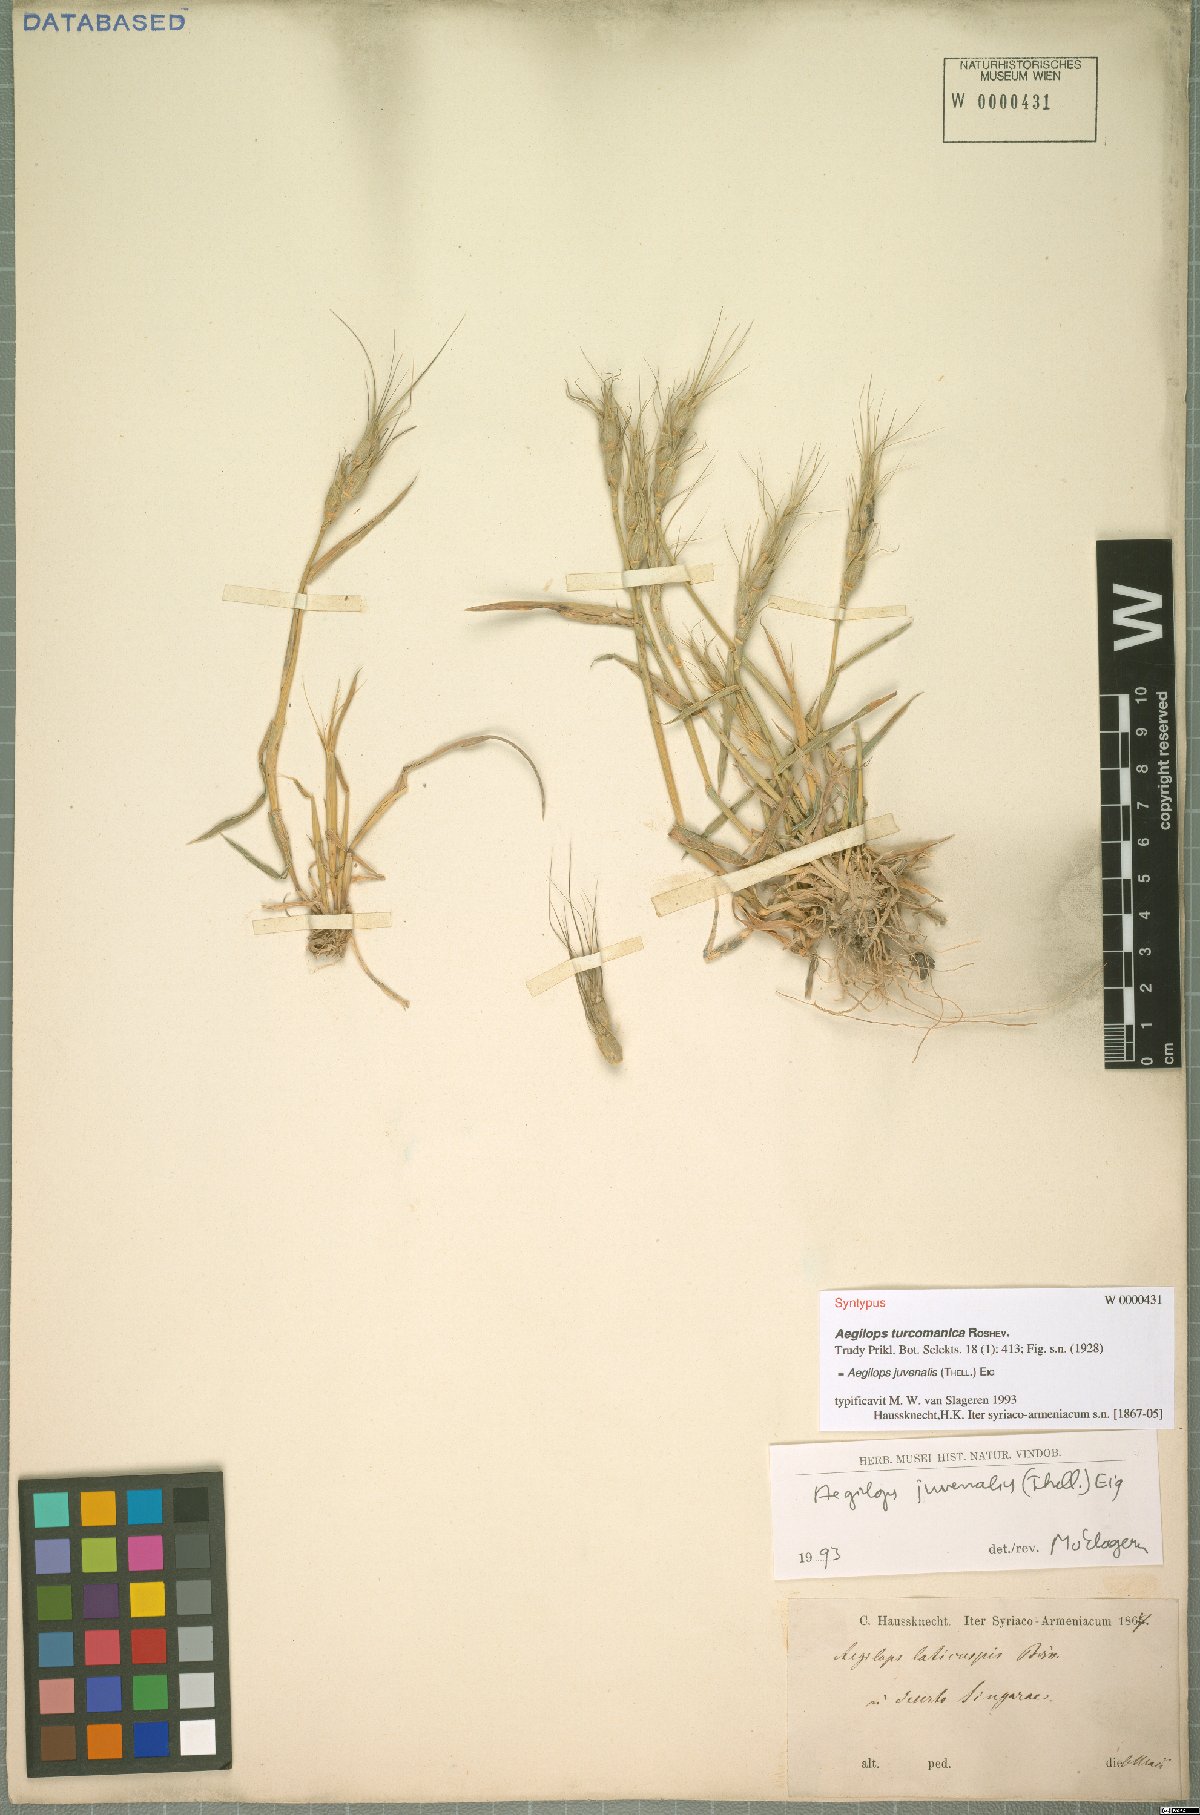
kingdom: Plantae
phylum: Tracheophyta
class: Liliopsida
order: Poales
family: Poaceae
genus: Aegilops
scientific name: Aegilops juvenalis
